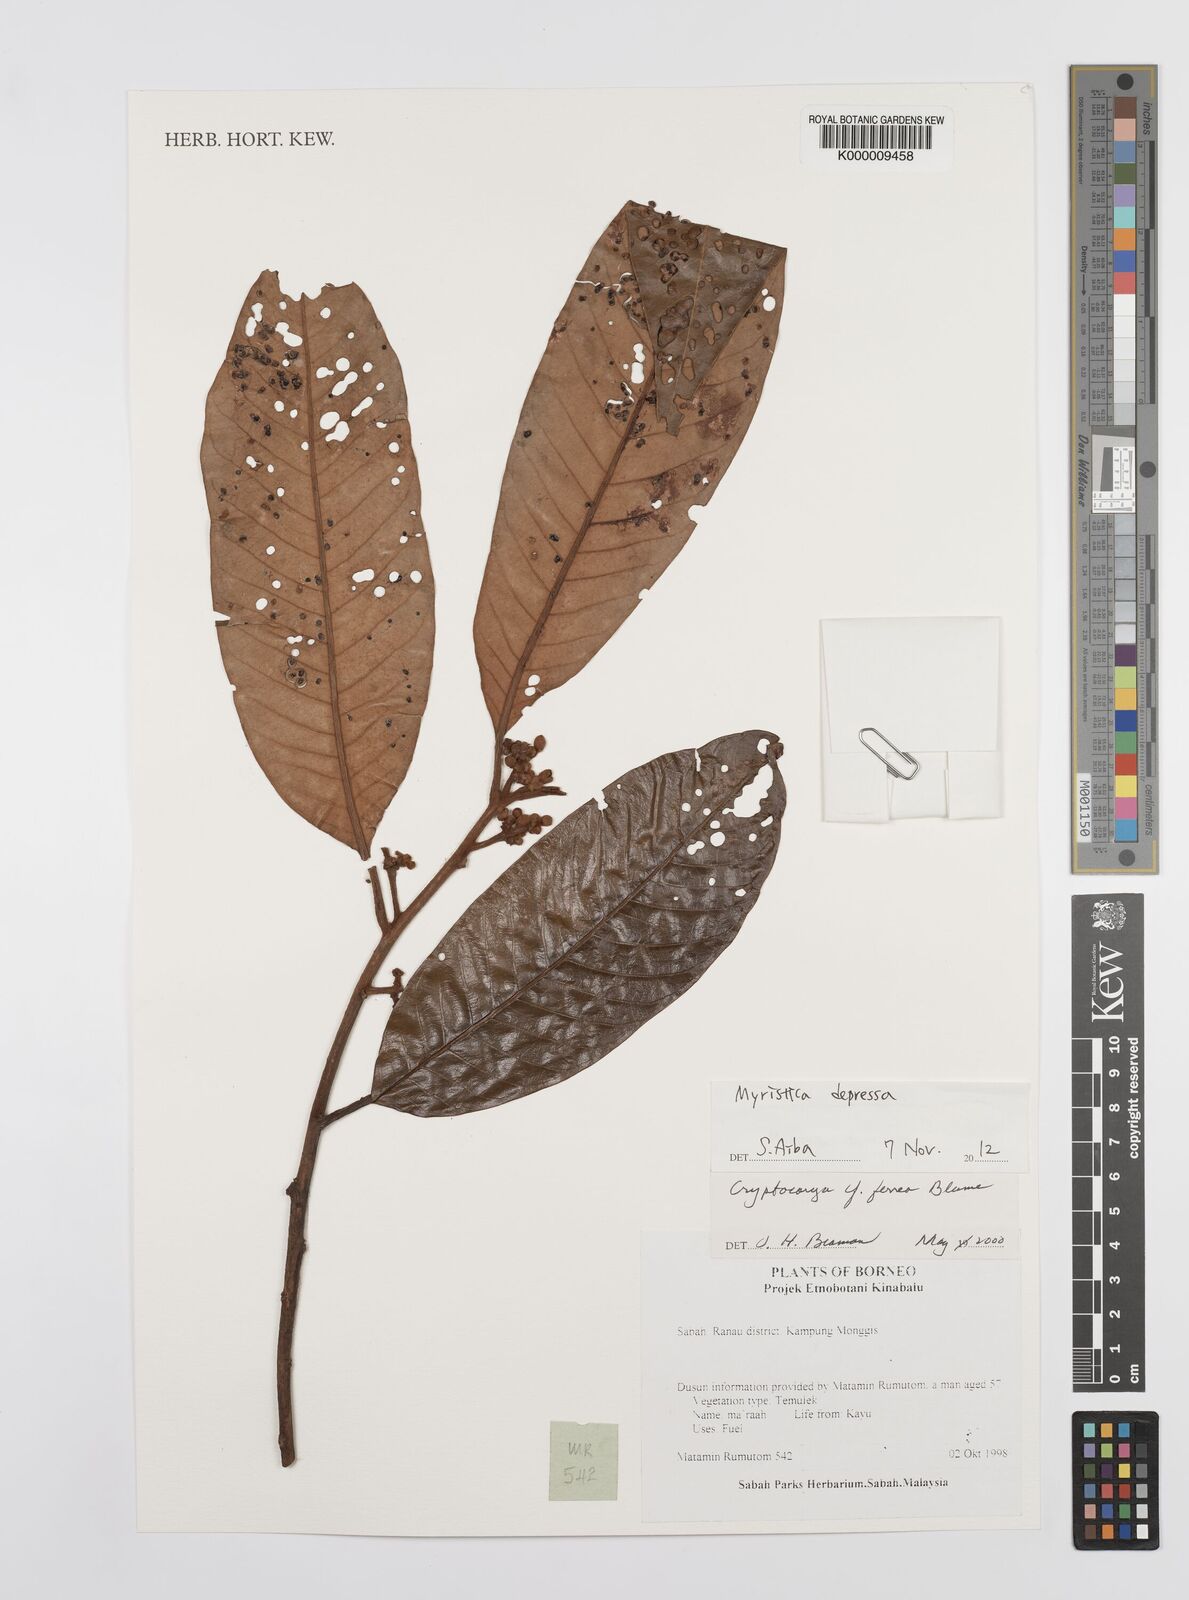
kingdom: Plantae
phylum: Tracheophyta
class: Magnoliopsida
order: Laurales
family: Lauraceae
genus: Cryptocarya
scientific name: Cryptocarya ferrea
